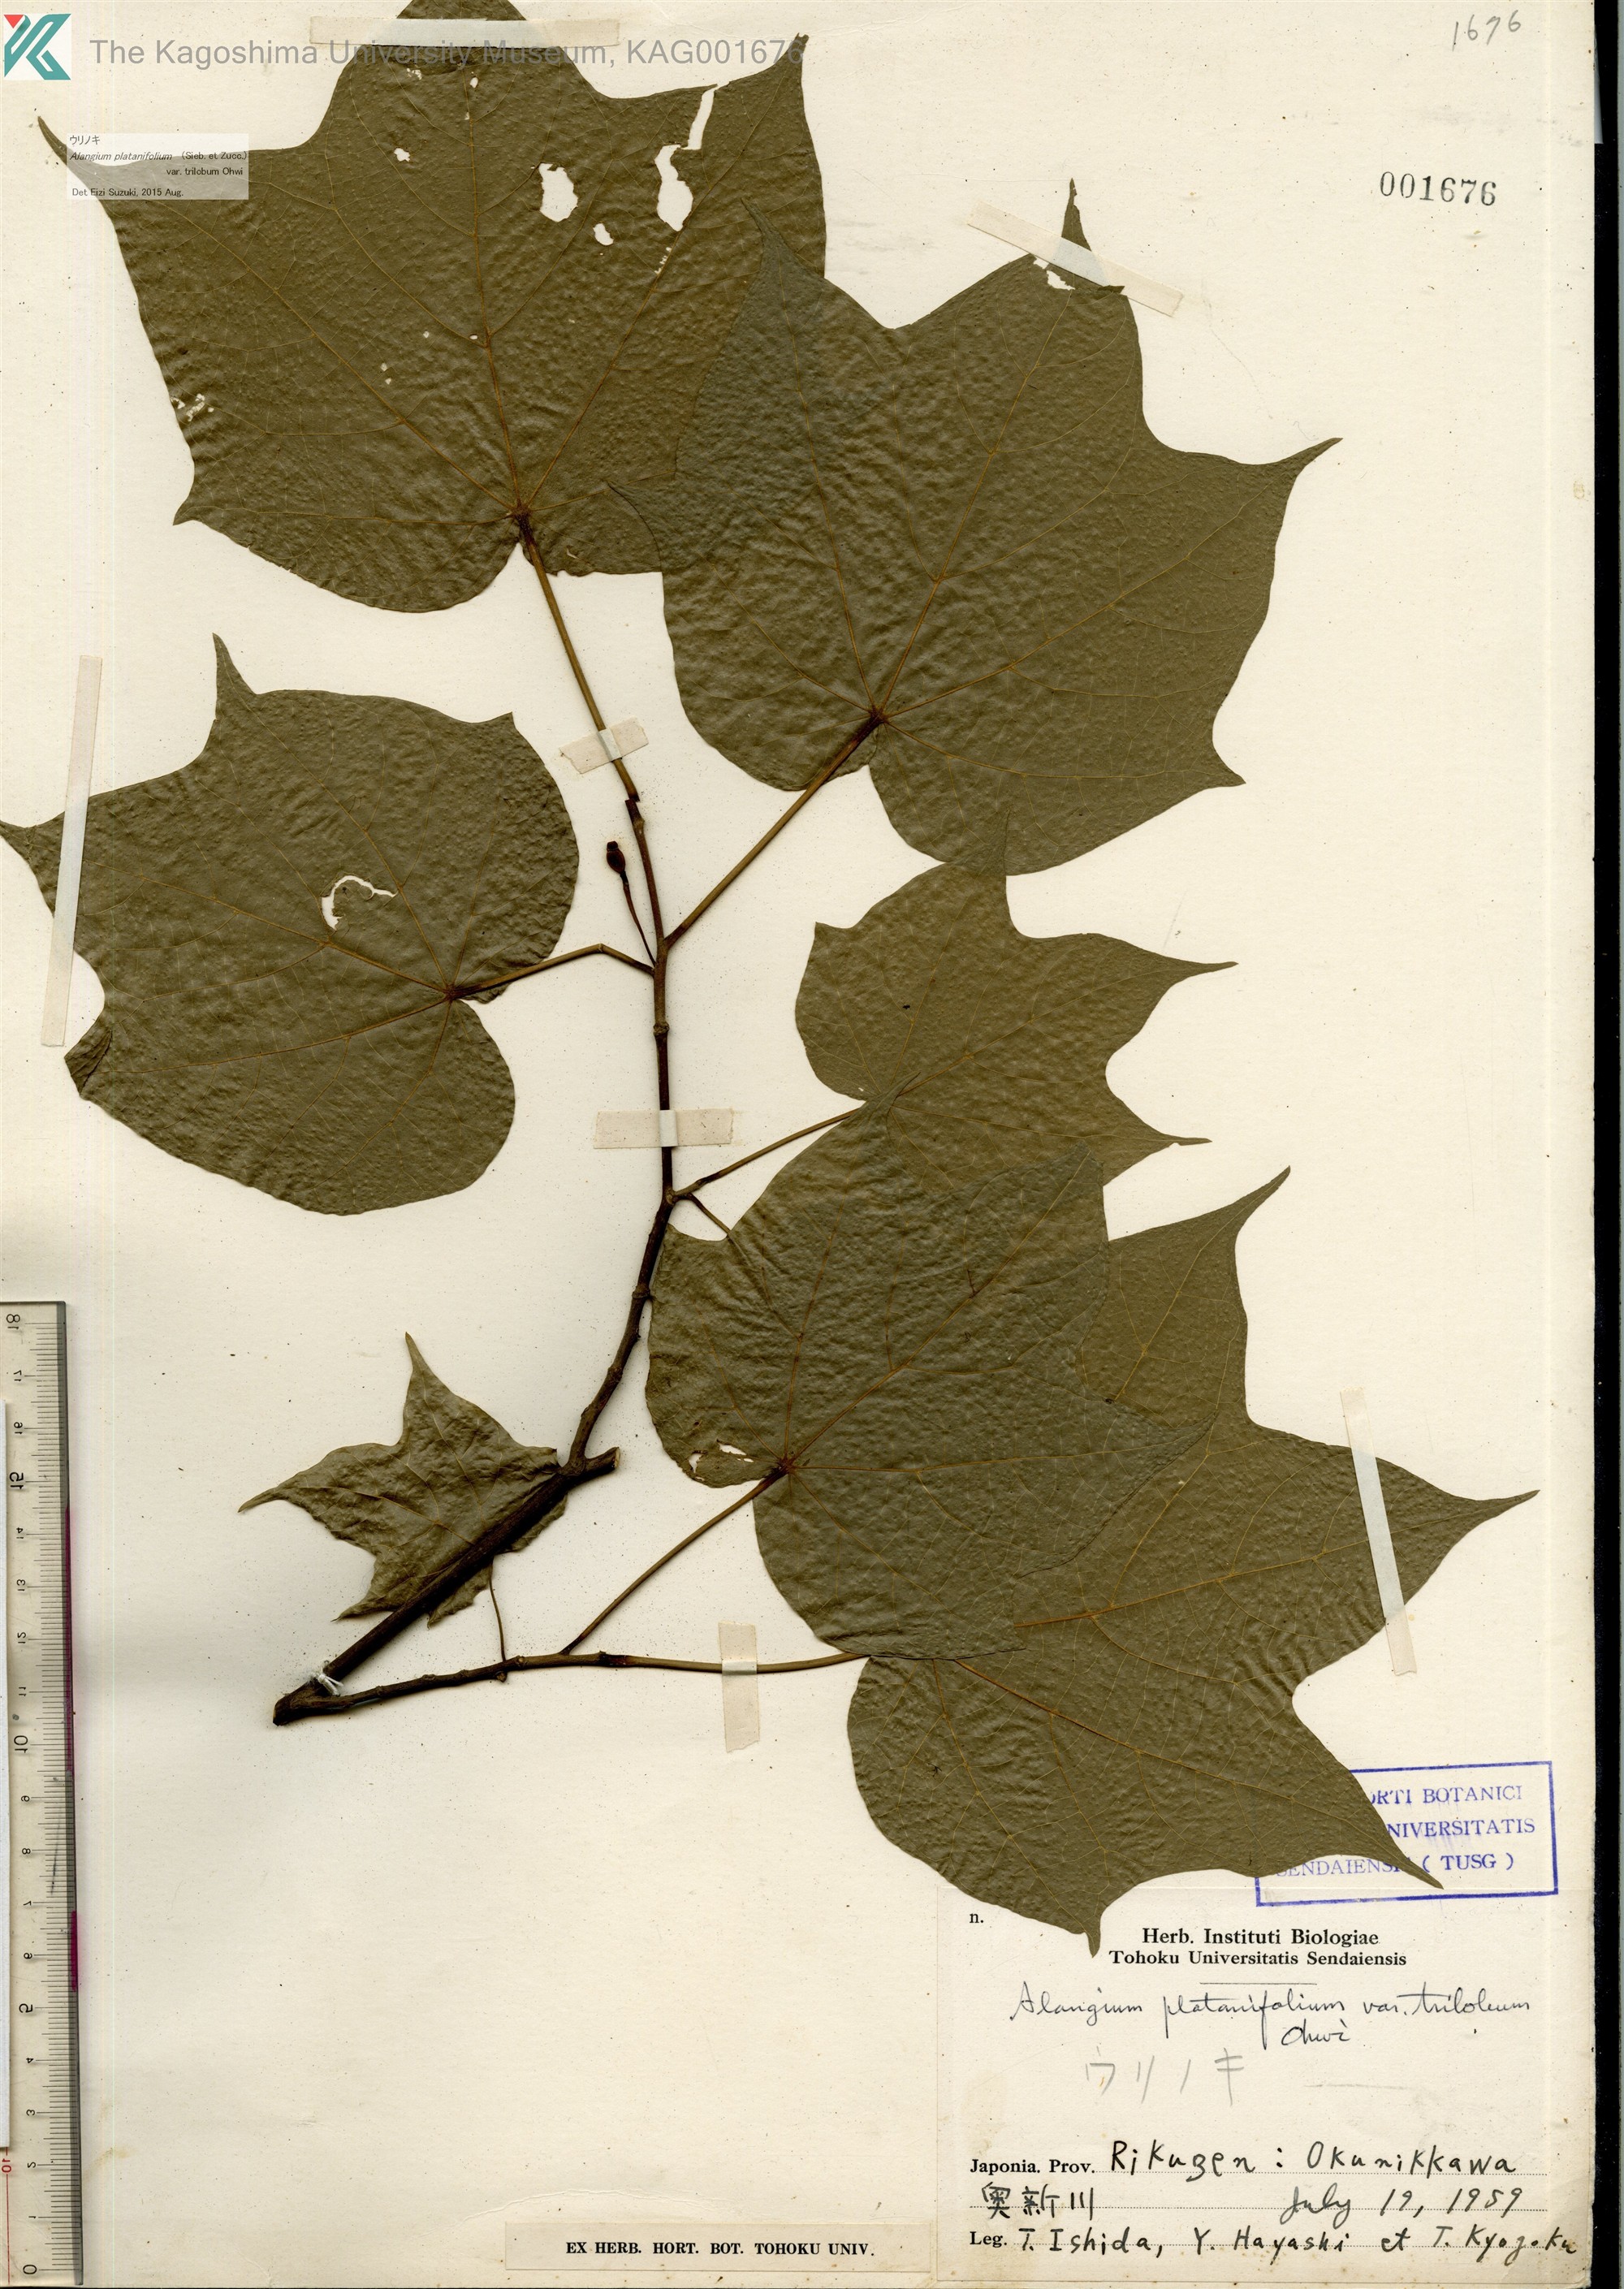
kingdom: Plantae
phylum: Tracheophyta
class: Magnoliopsida
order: Cornales
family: Cornaceae
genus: Alangium
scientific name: Alangium platanifolium
